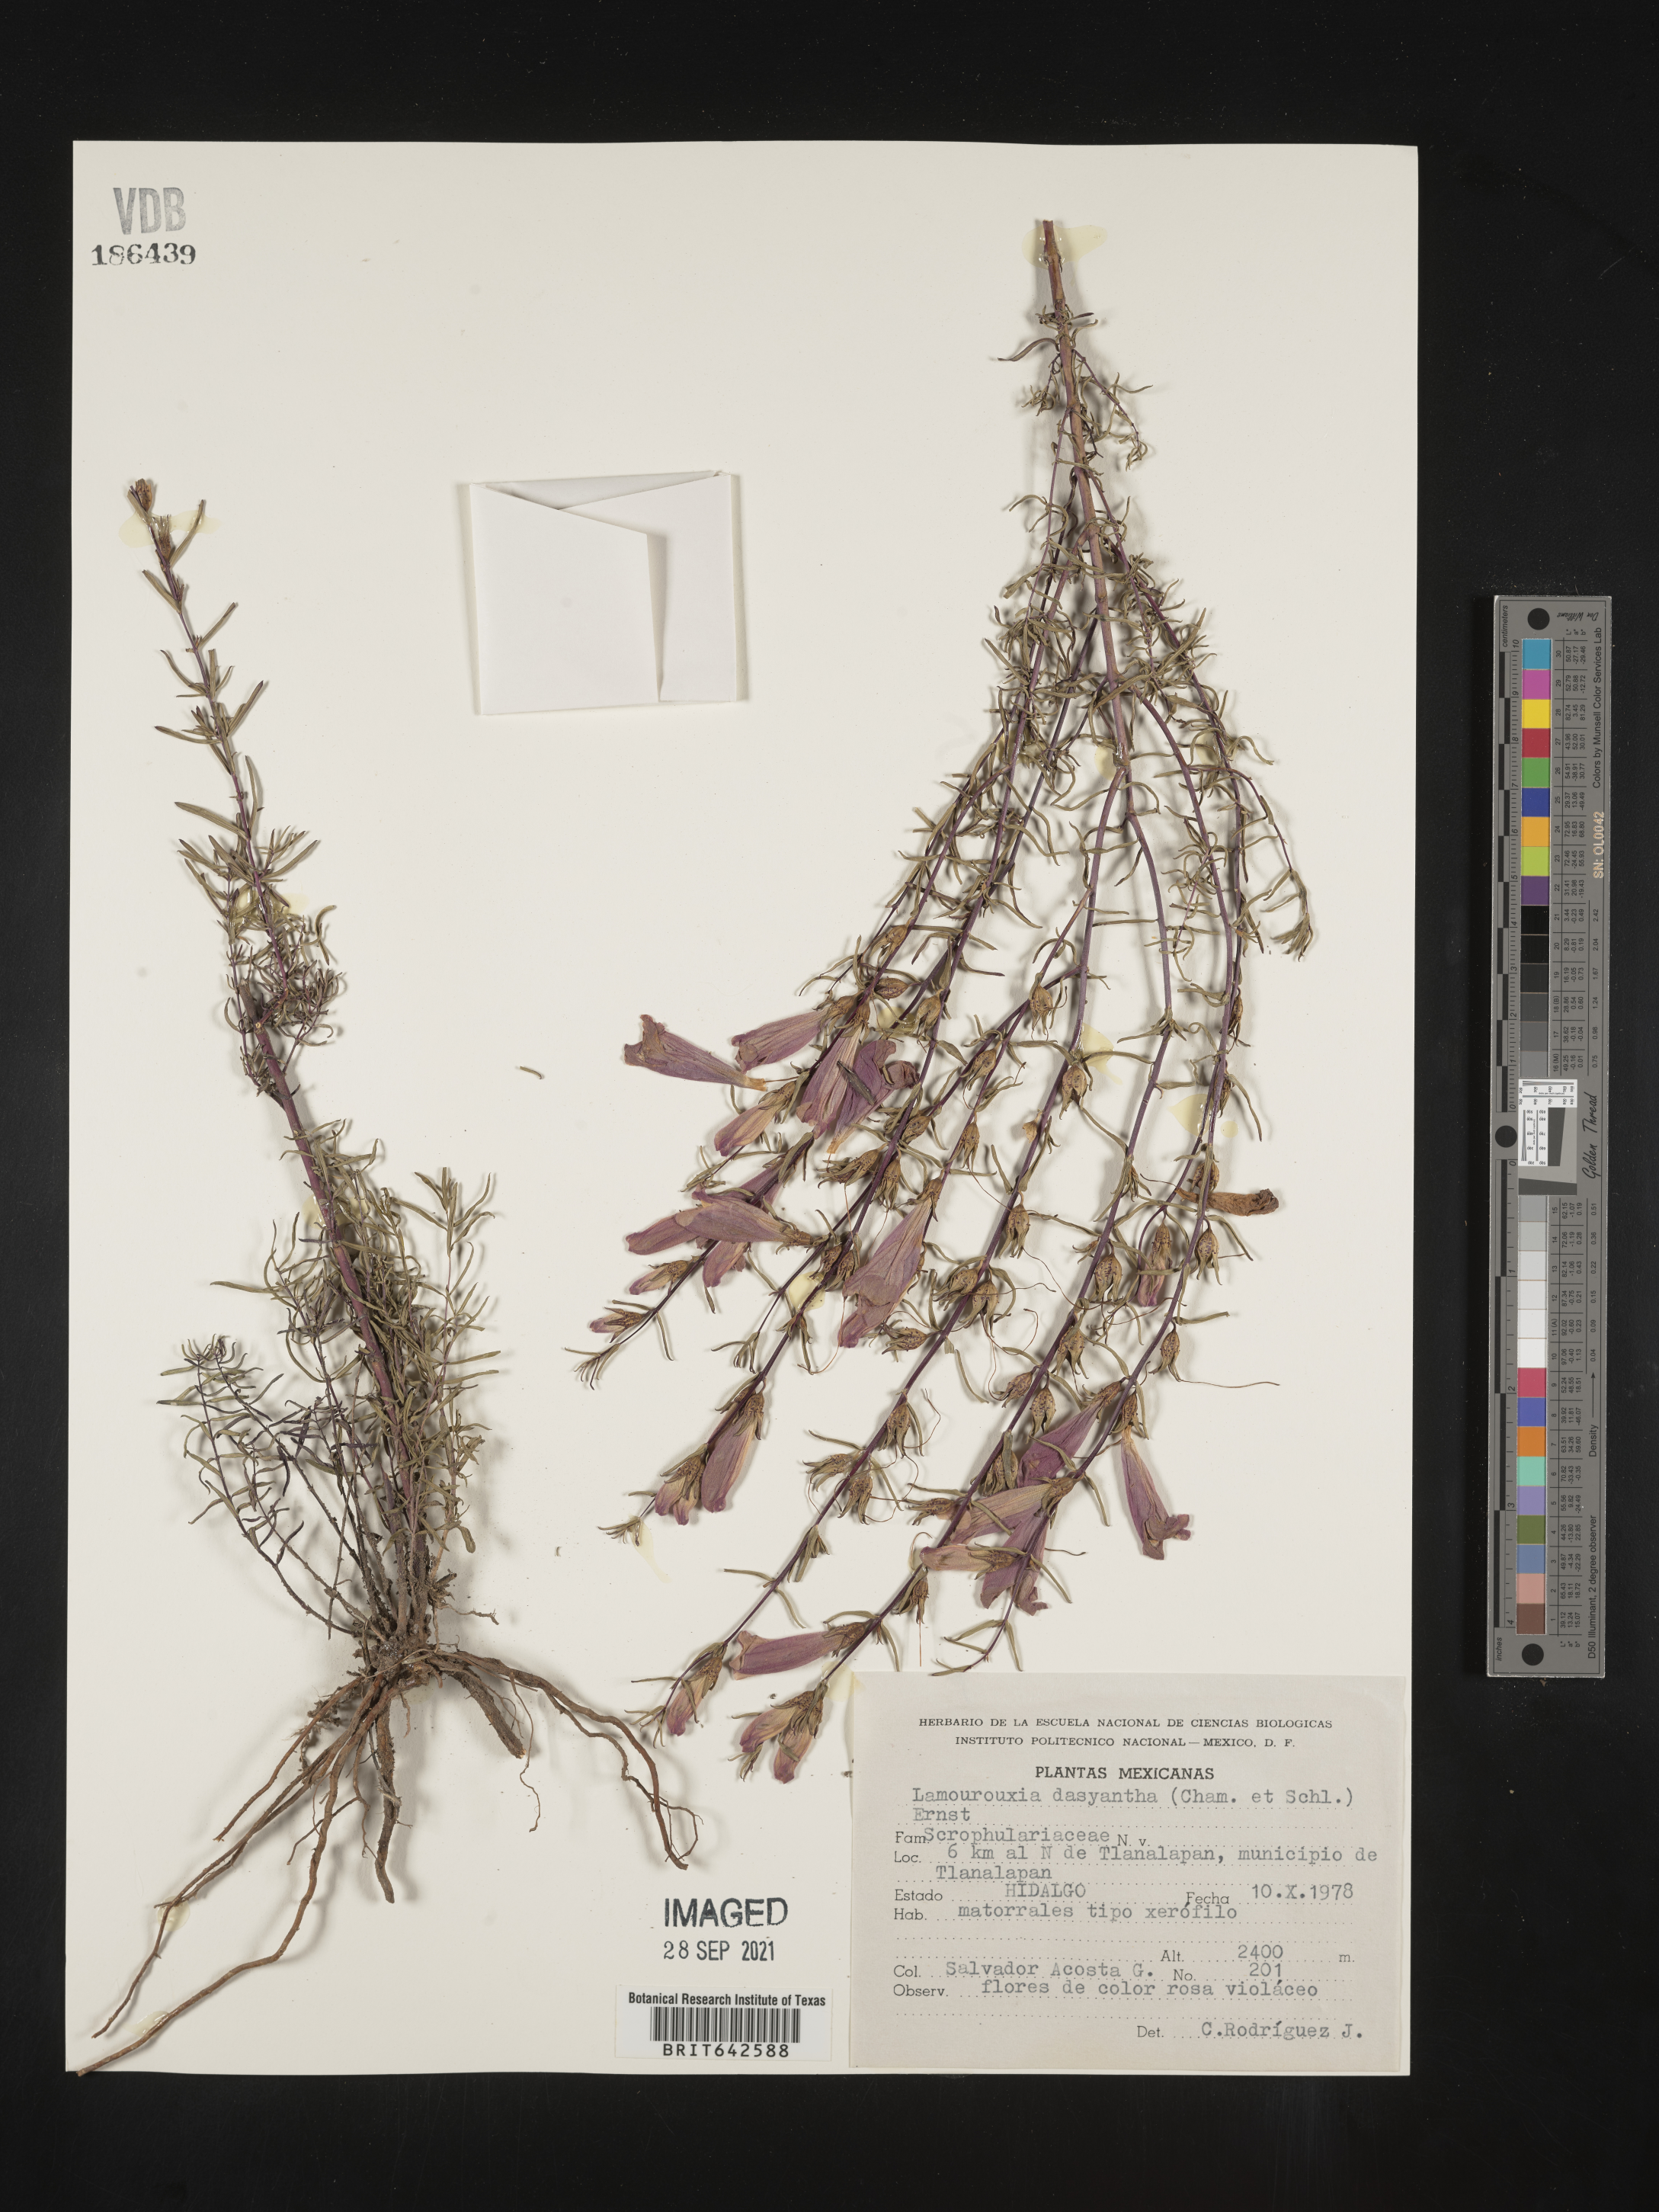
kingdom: Plantae
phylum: Tracheophyta
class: Magnoliopsida
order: Lamiales
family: Orobanchaceae
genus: Lamourouxia
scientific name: Lamourouxia
